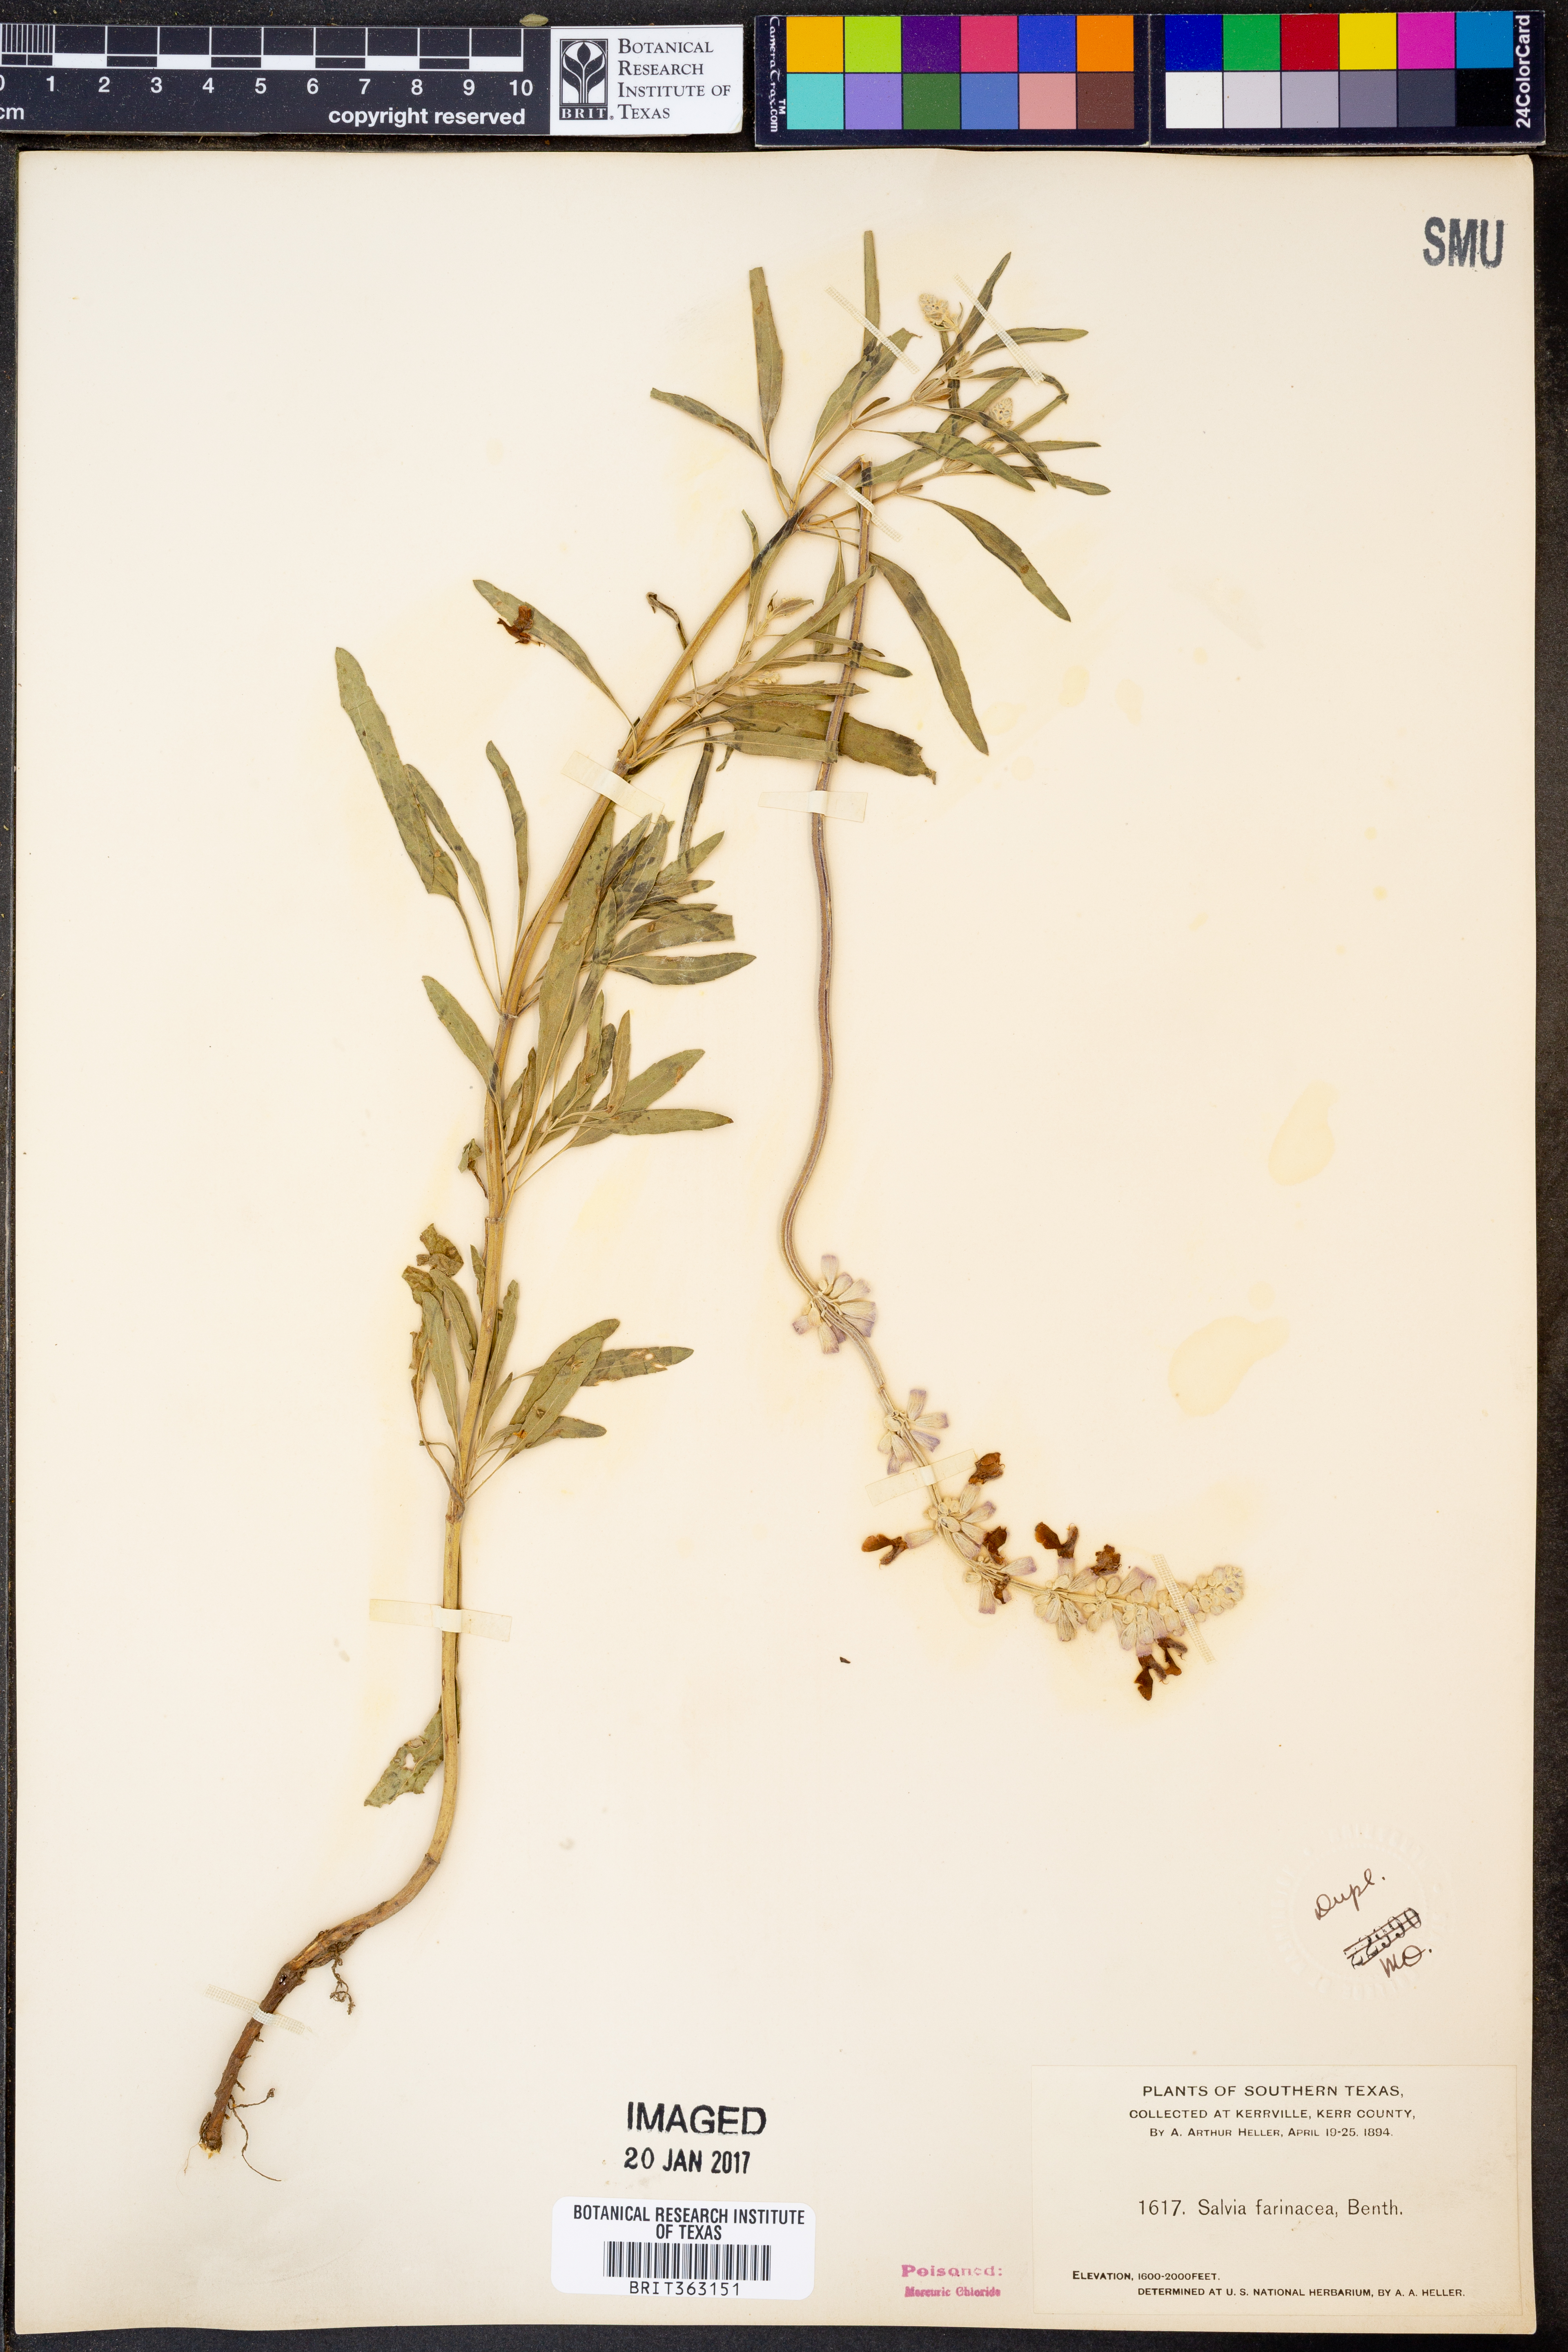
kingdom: Plantae
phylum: Tracheophyta
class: Magnoliopsida
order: Lamiales
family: Lamiaceae
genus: Salvia
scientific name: Salvia farinacea
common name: Mealy sage
